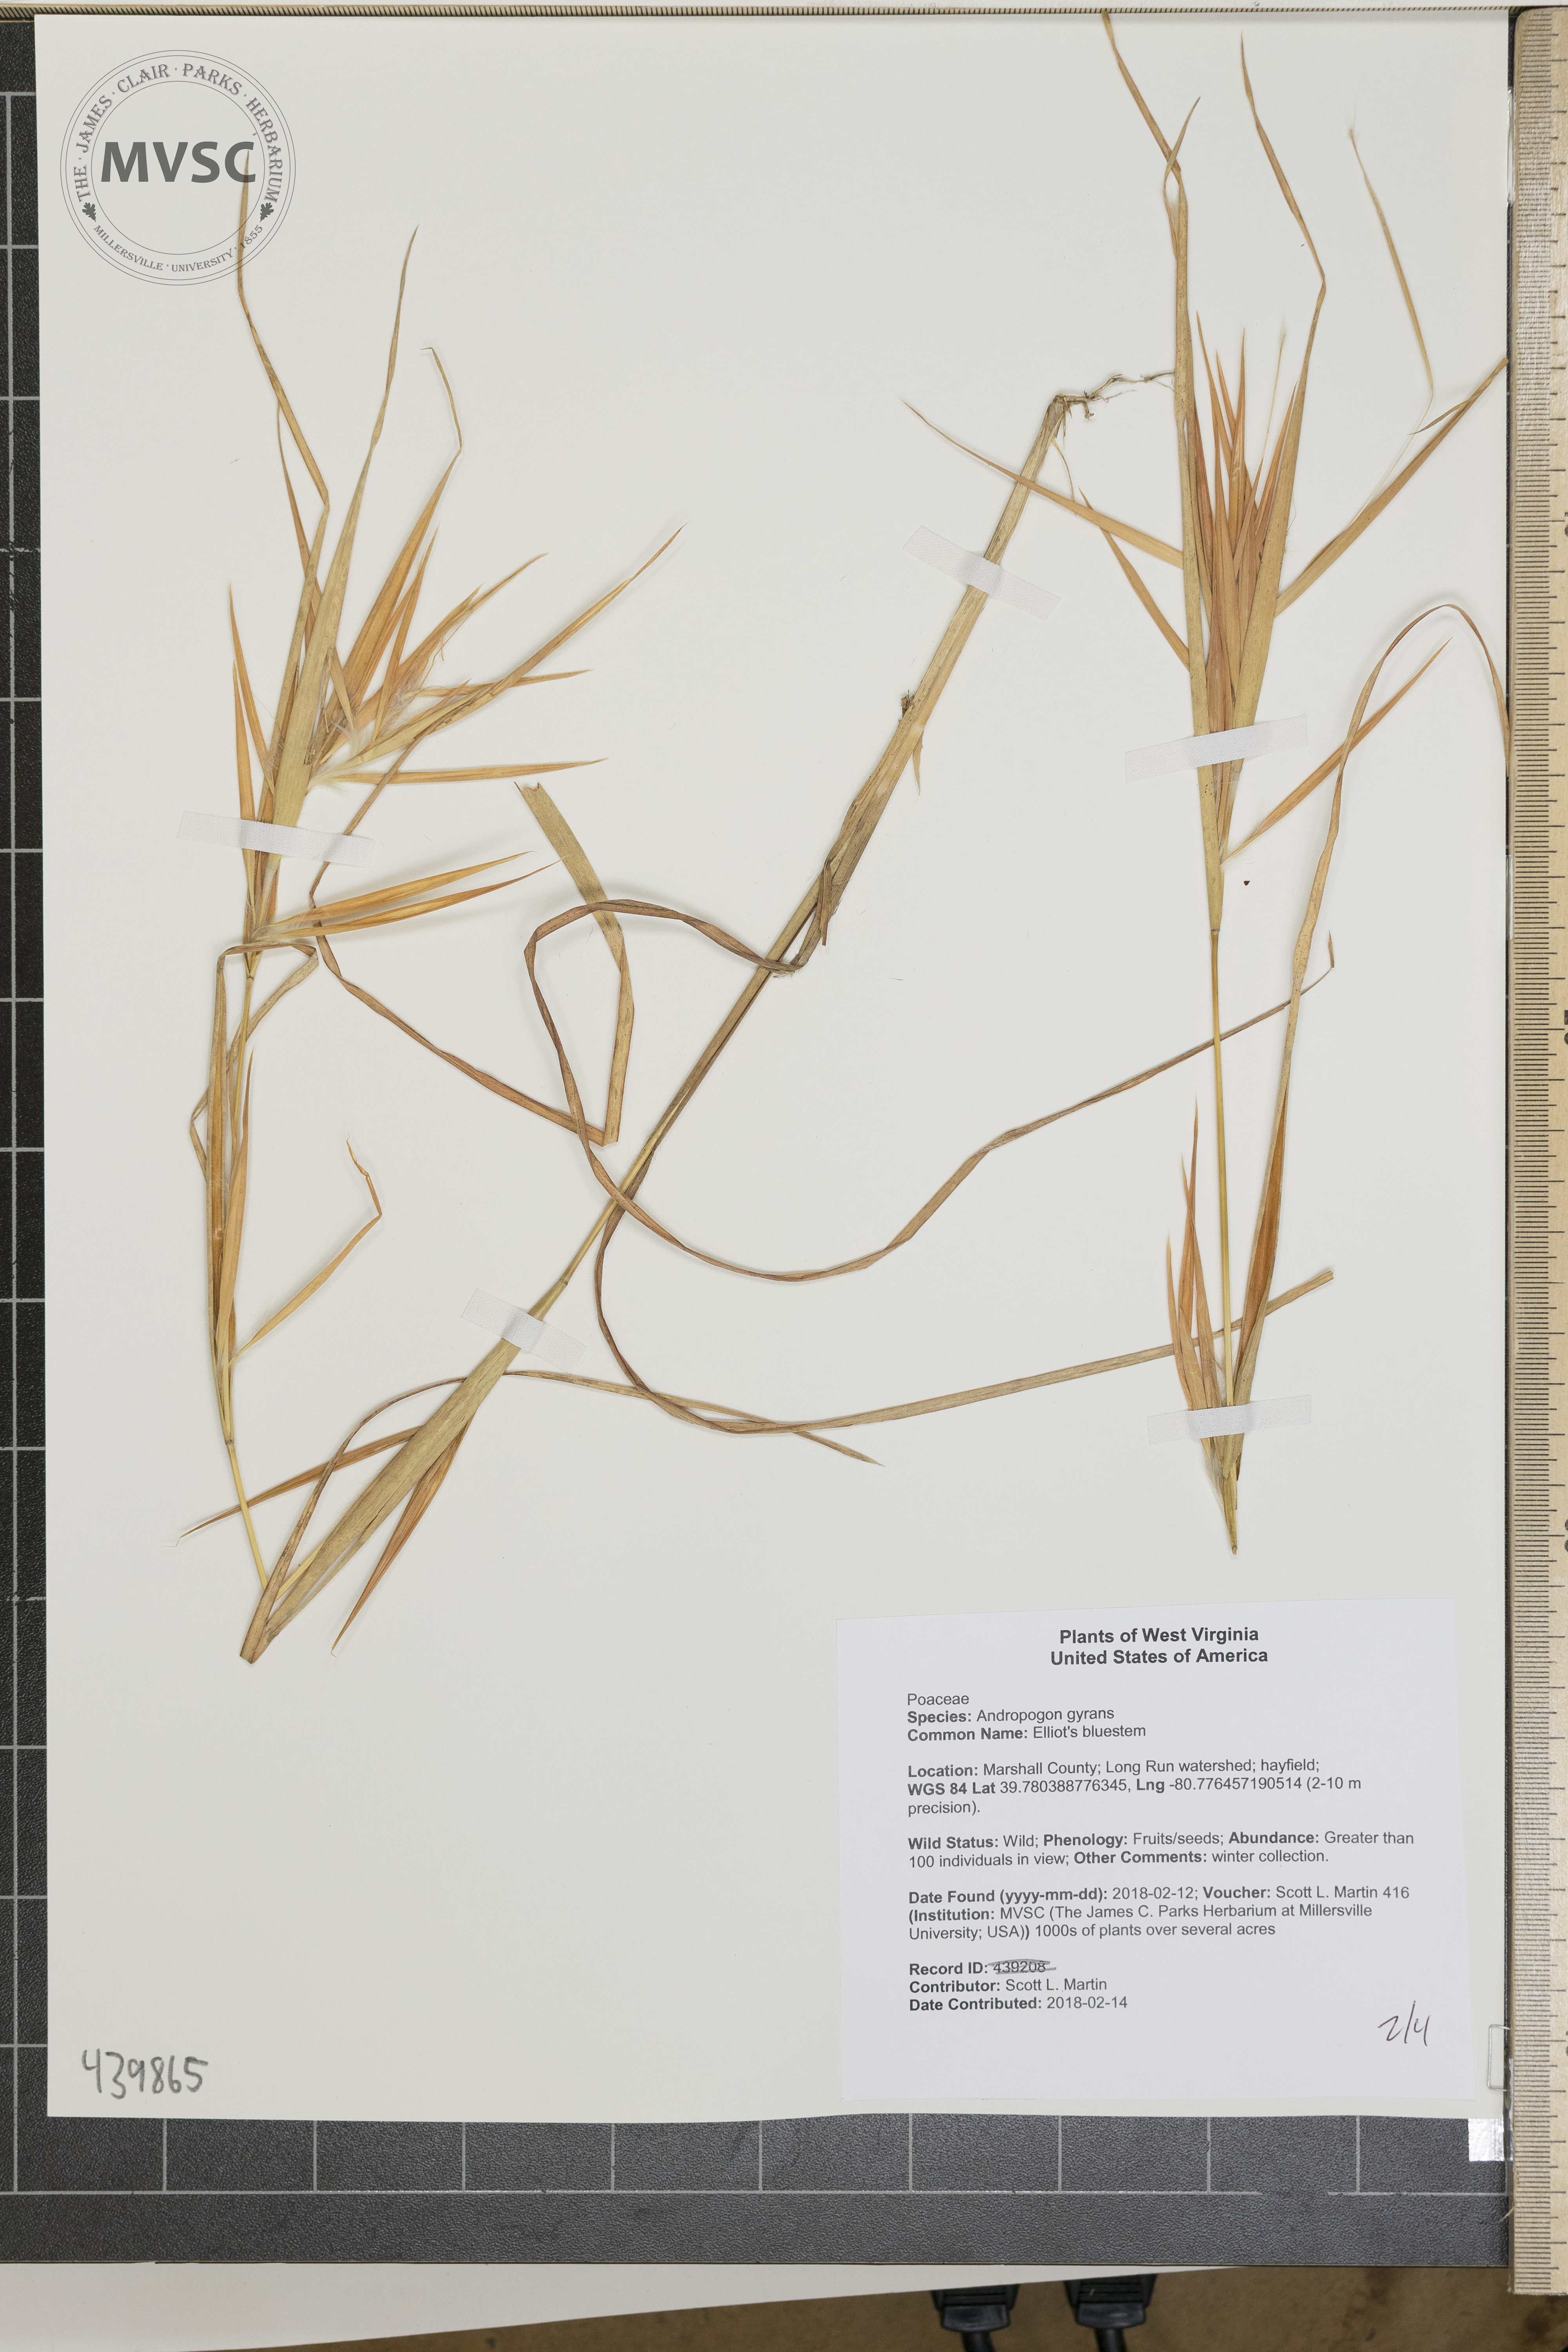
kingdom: Plantae
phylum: Tracheophyta
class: Liliopsida
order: Poales
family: Poaceae
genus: Andropogon
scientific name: Andropogon gyrans
